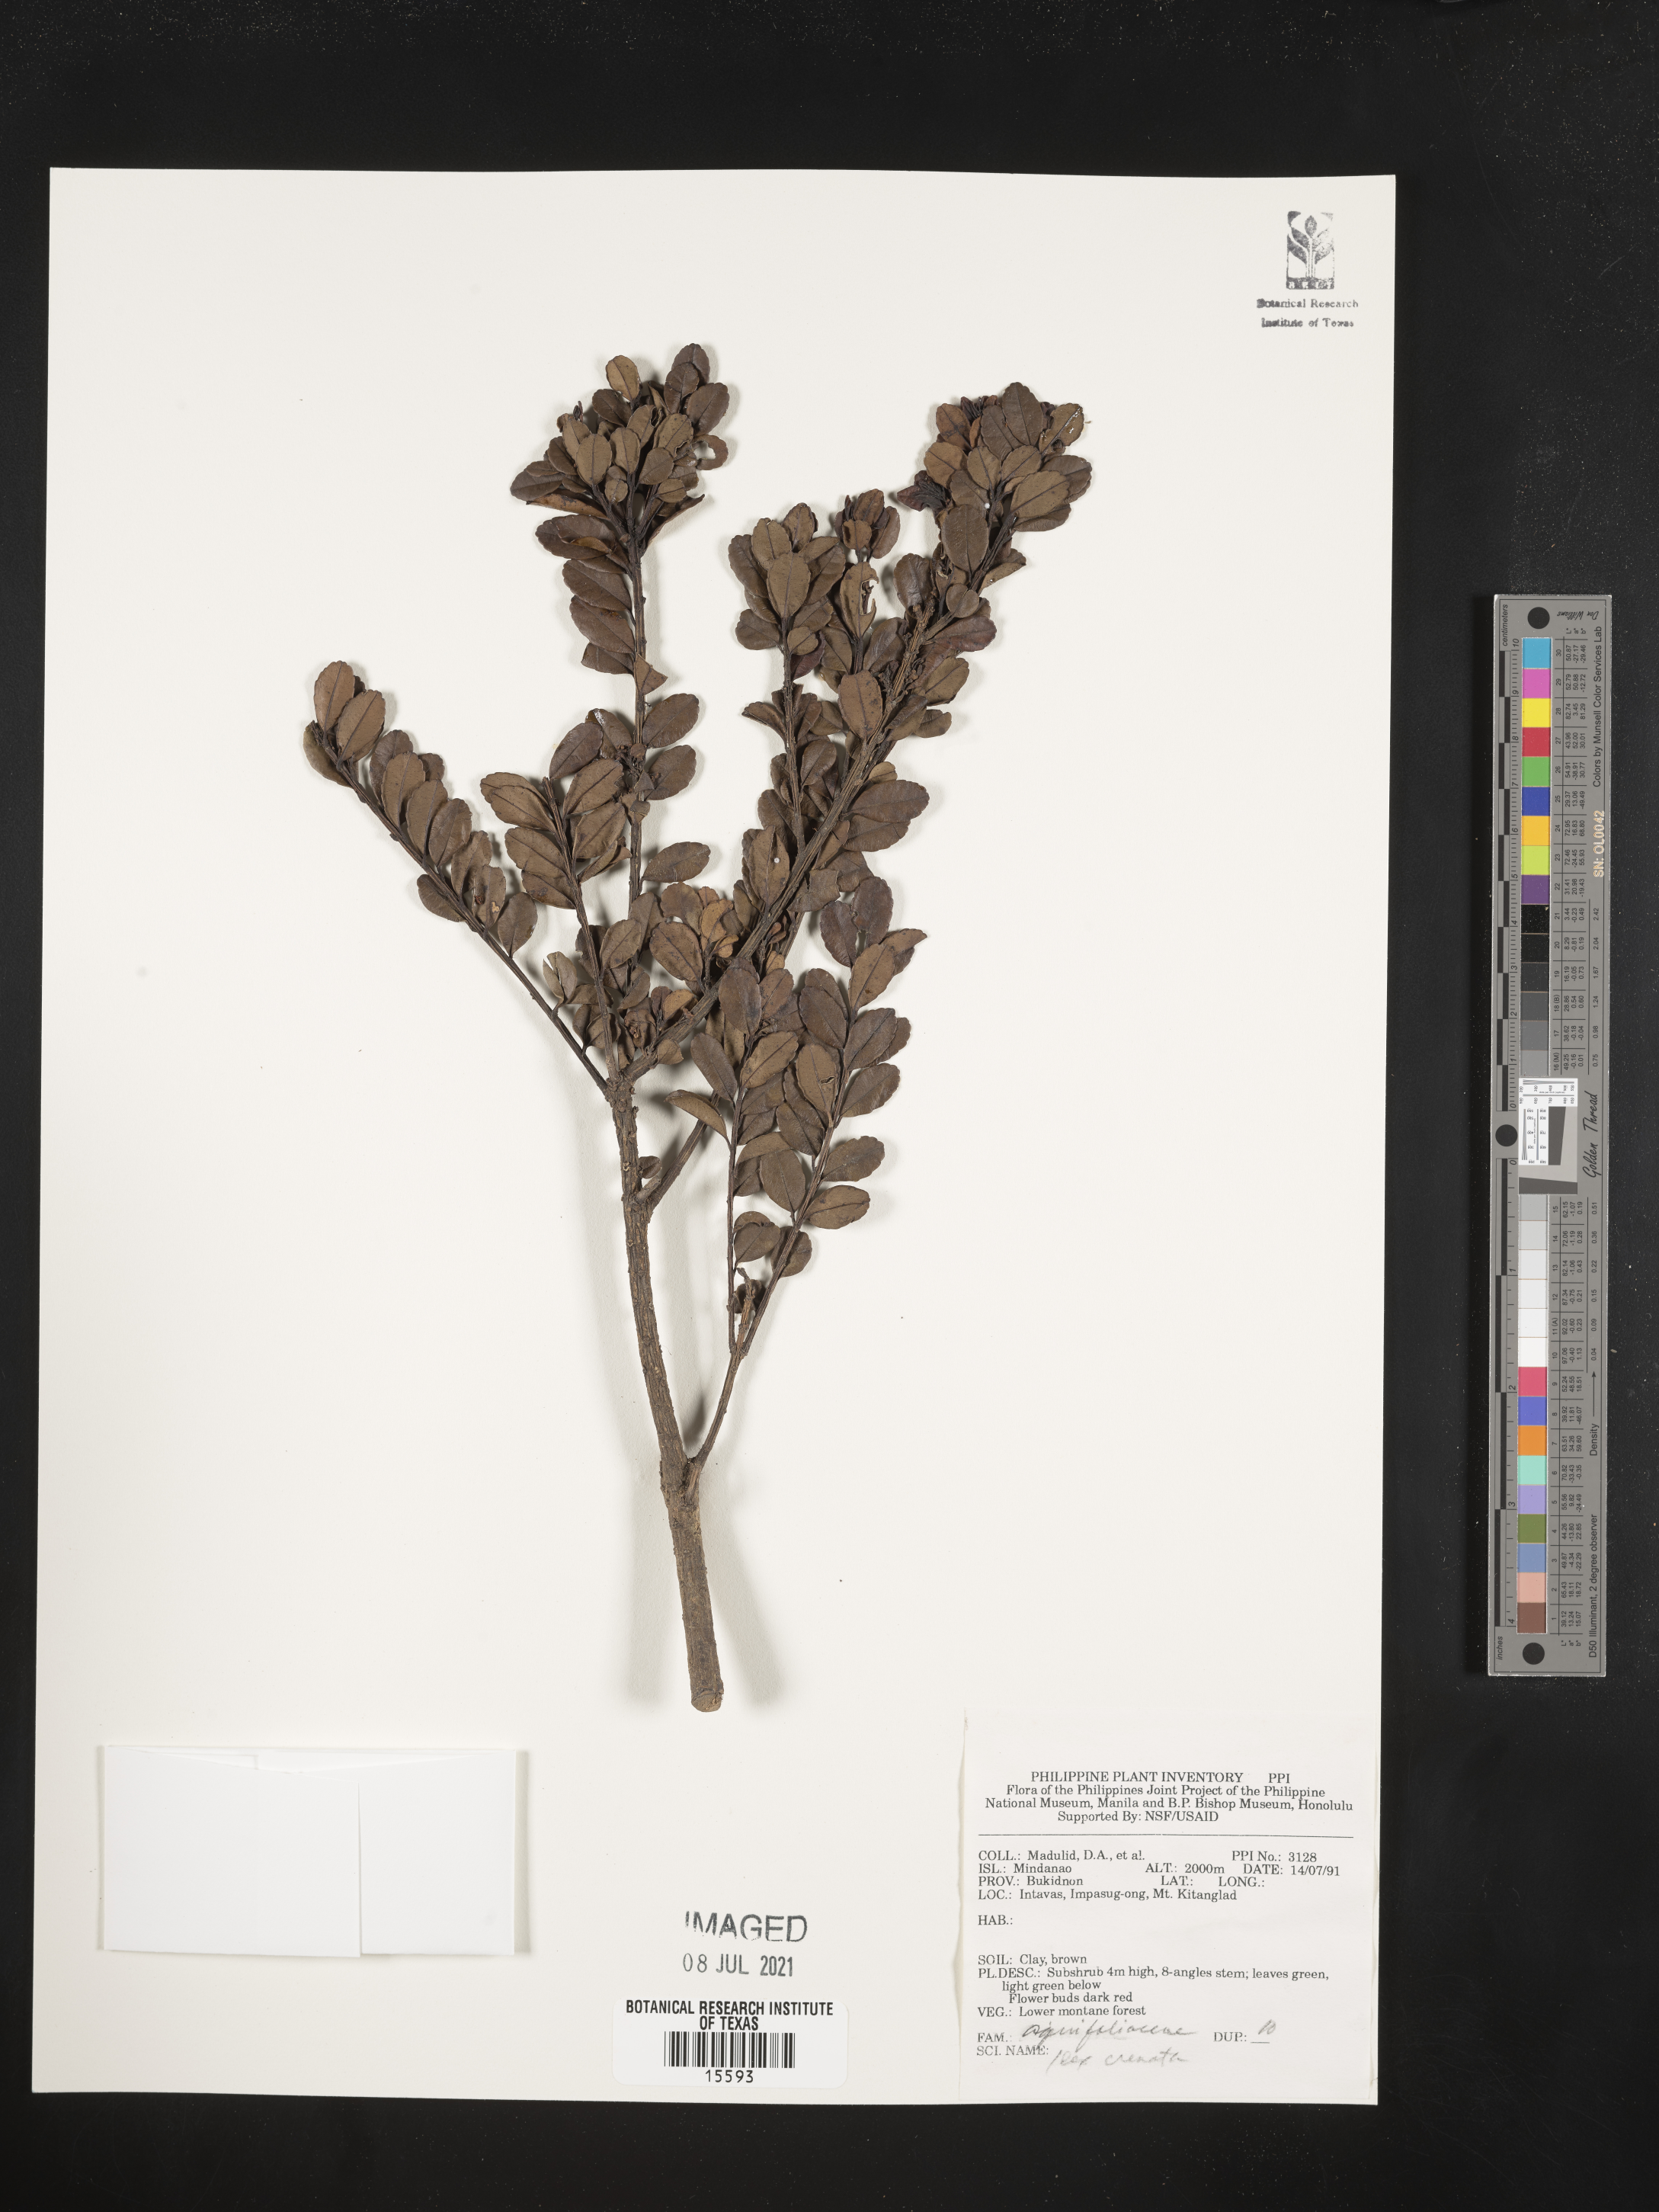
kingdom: Plantae
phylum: Tracheophyta
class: Magnoliopsida
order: Aquifoliales
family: Aquifoliaceae
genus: Ilex
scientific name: Ilex crenata
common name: Japanese holly
